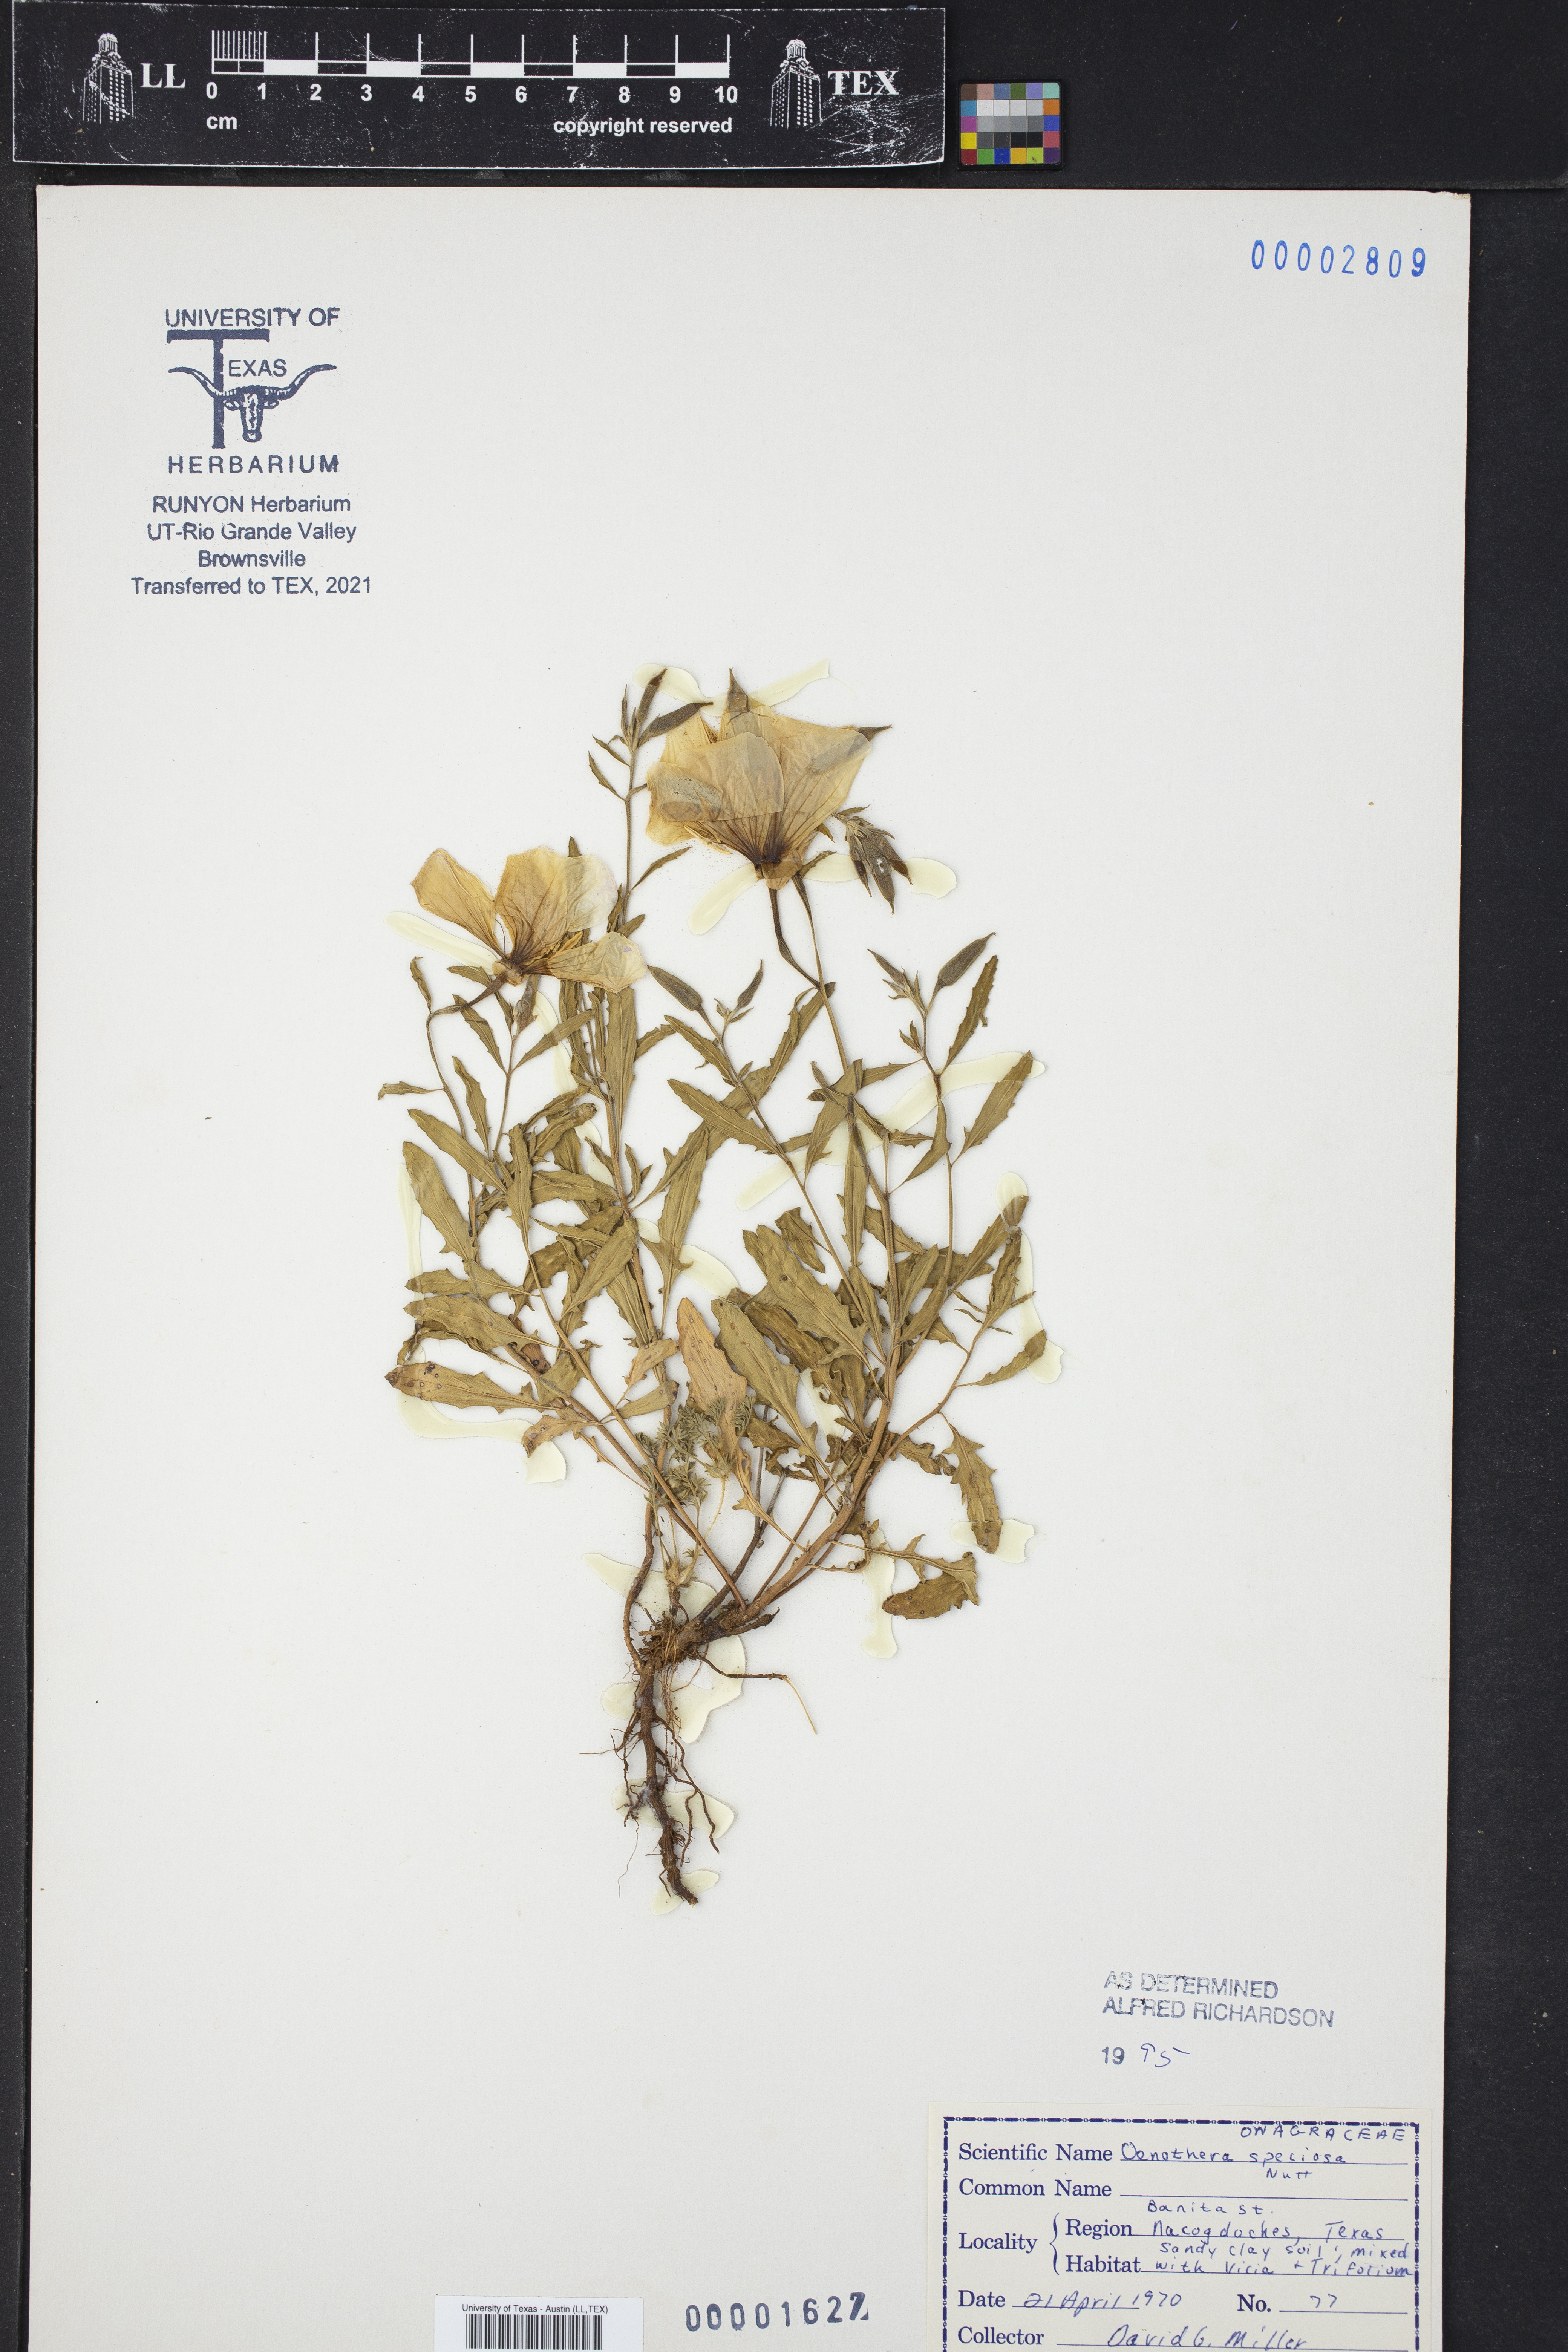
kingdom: Plantae
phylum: Tracheophyta
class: Magnoliopsida
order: Myrtales
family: Onagraceae
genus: Oenothera
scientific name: Oenothera speciosa
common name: White evening-primrose
